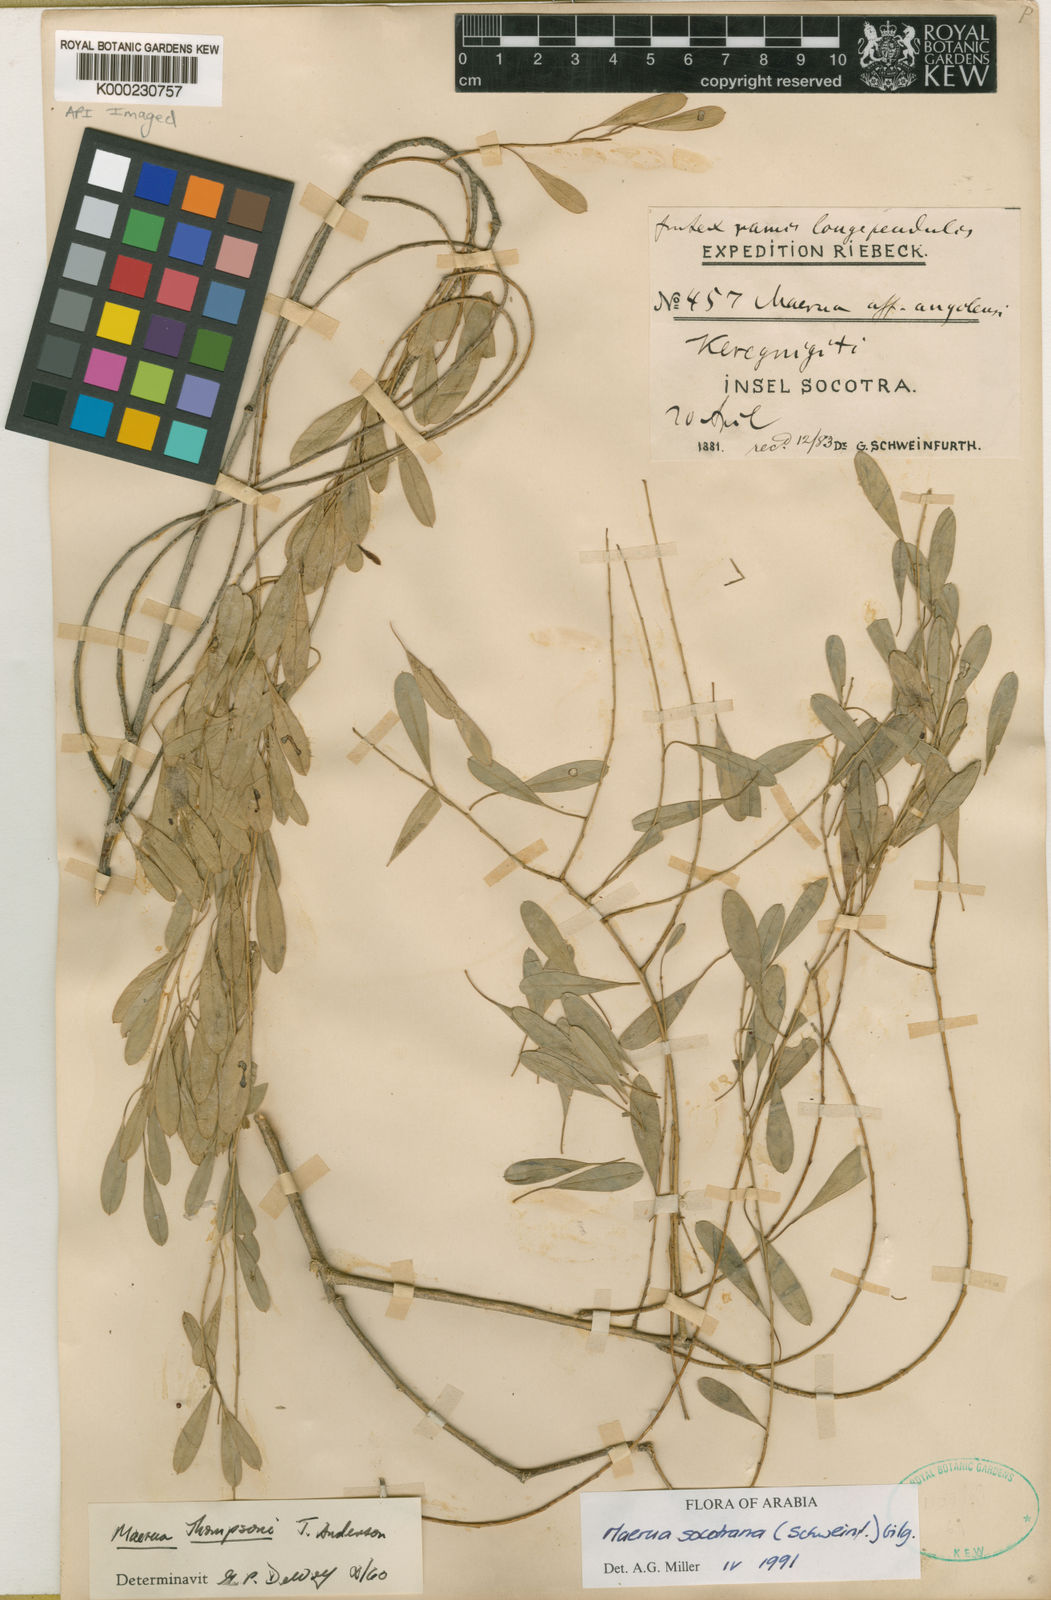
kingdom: Plantae
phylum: Tracheophyta
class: Magnoliopsida
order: Brassicales
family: Capparaceae
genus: Maerua
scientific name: Maerua thomsonii
